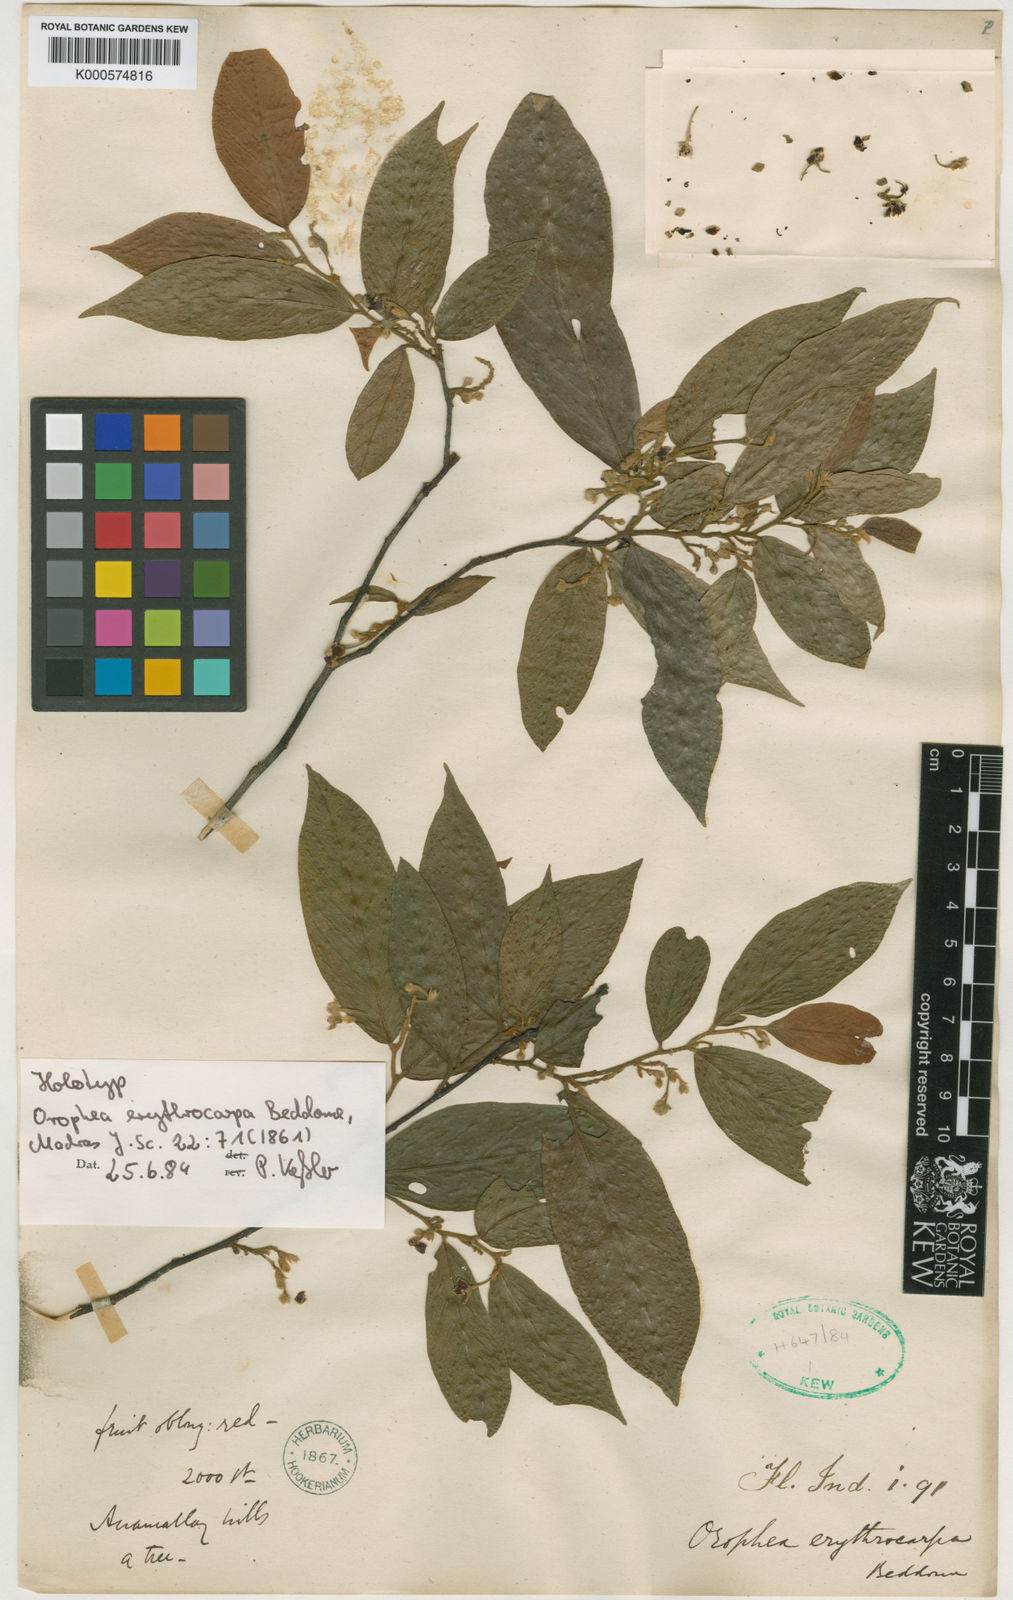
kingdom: Plantae
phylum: Tracheophyta
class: Magnoliopsida
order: Magnoliales
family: Annonaceae
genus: Orophea
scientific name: Orophea erythrocarpa
